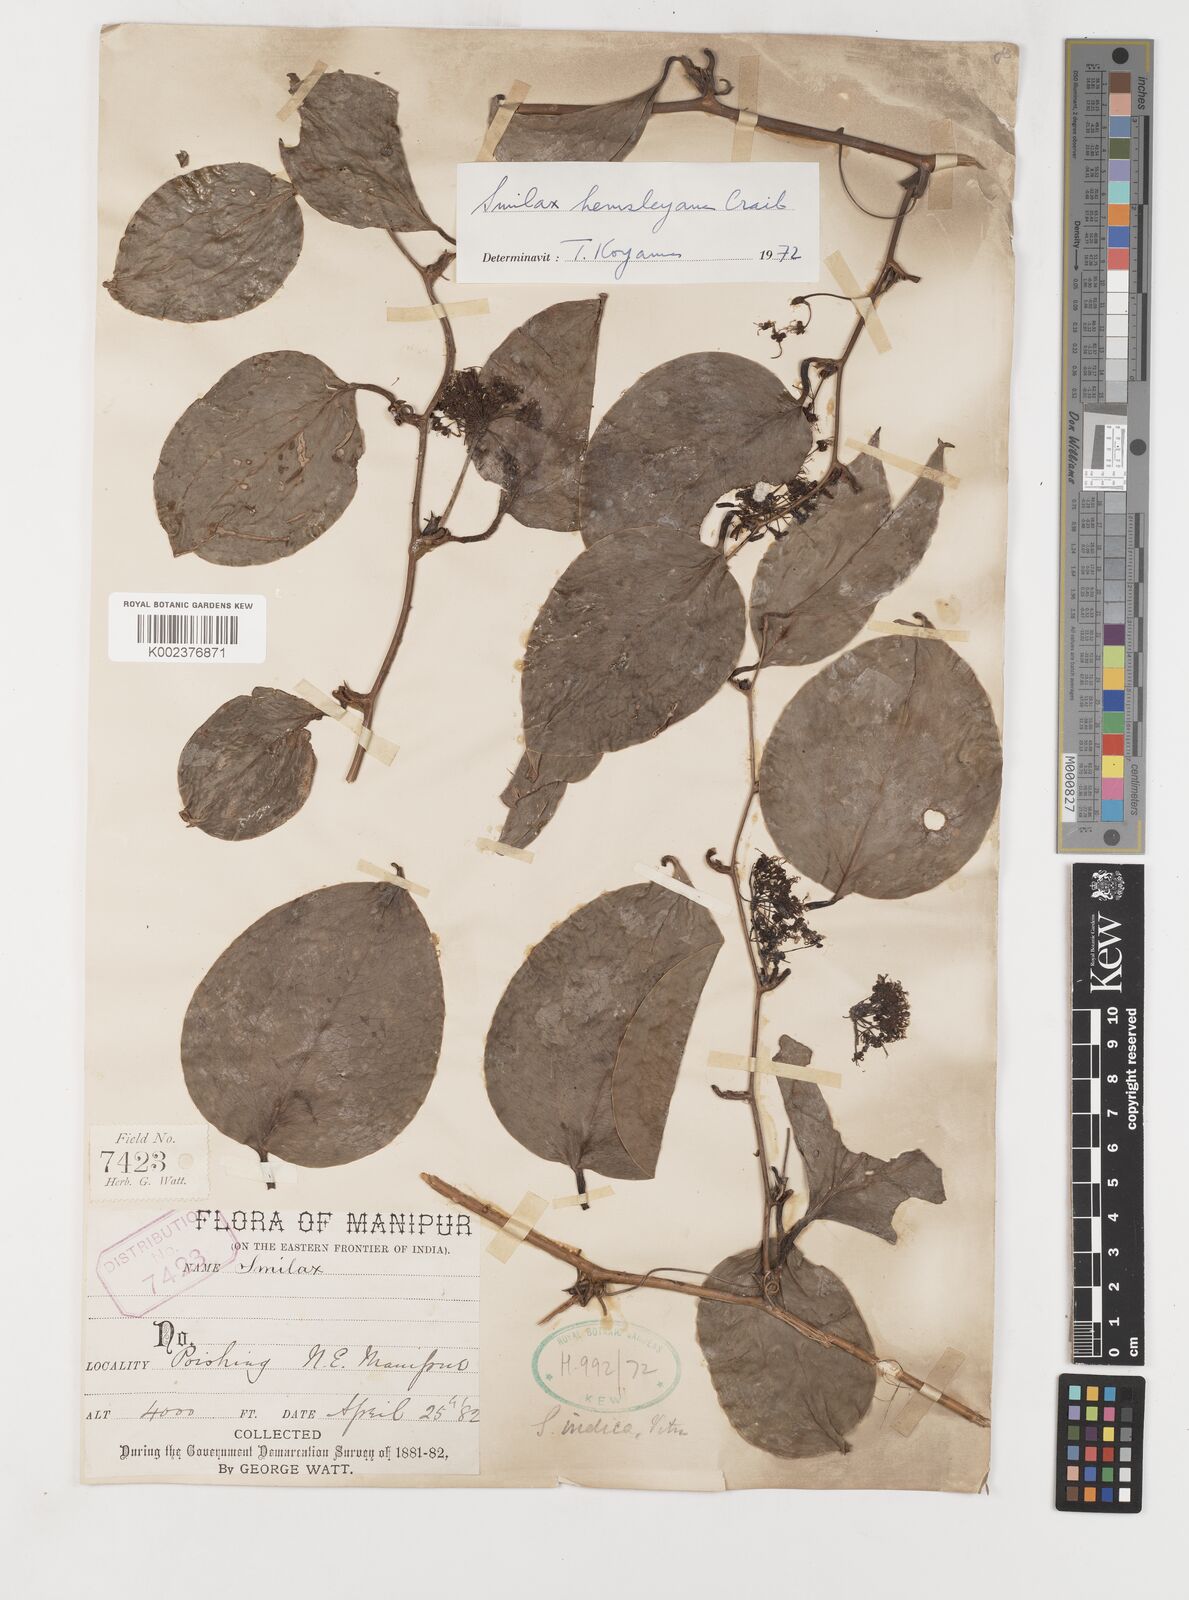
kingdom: Plantae
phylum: Tracheophyta
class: Liliopsida
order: Liliales
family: Smilacaceae
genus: Smilax
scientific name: Smilax hemsleyana
